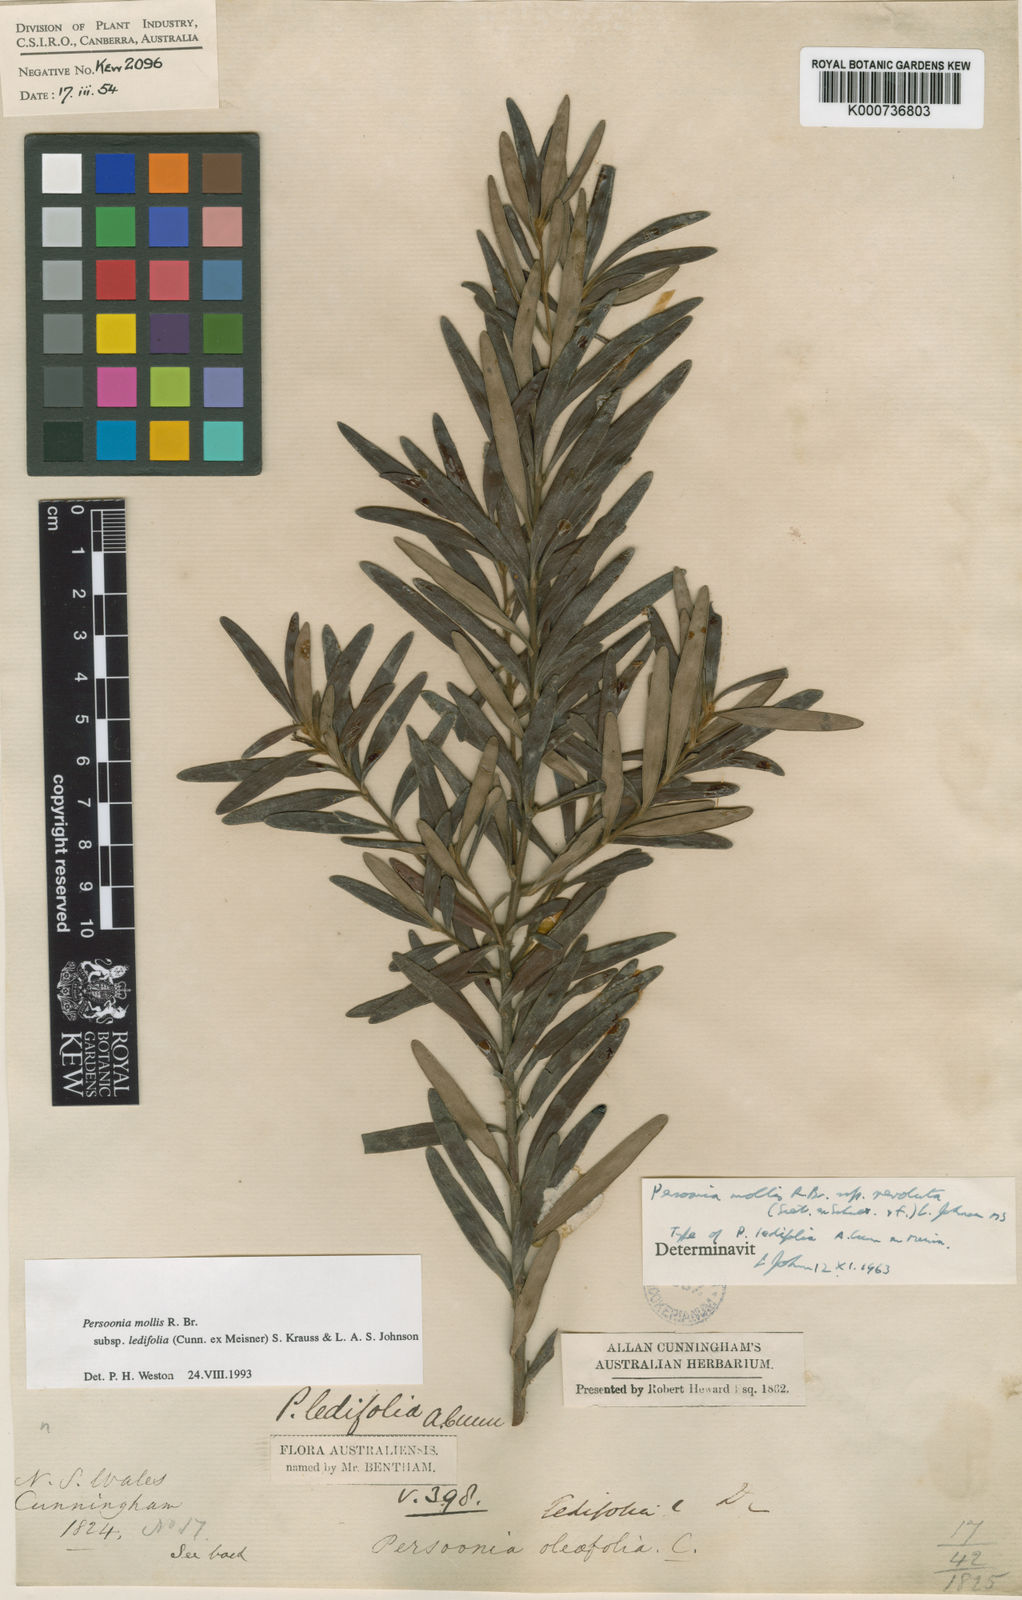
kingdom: Plantae
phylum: Tracheophyta
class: Magnoliopsida
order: Proteales
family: Proteaceae
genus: Persoonia
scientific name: Persoonia mollis
